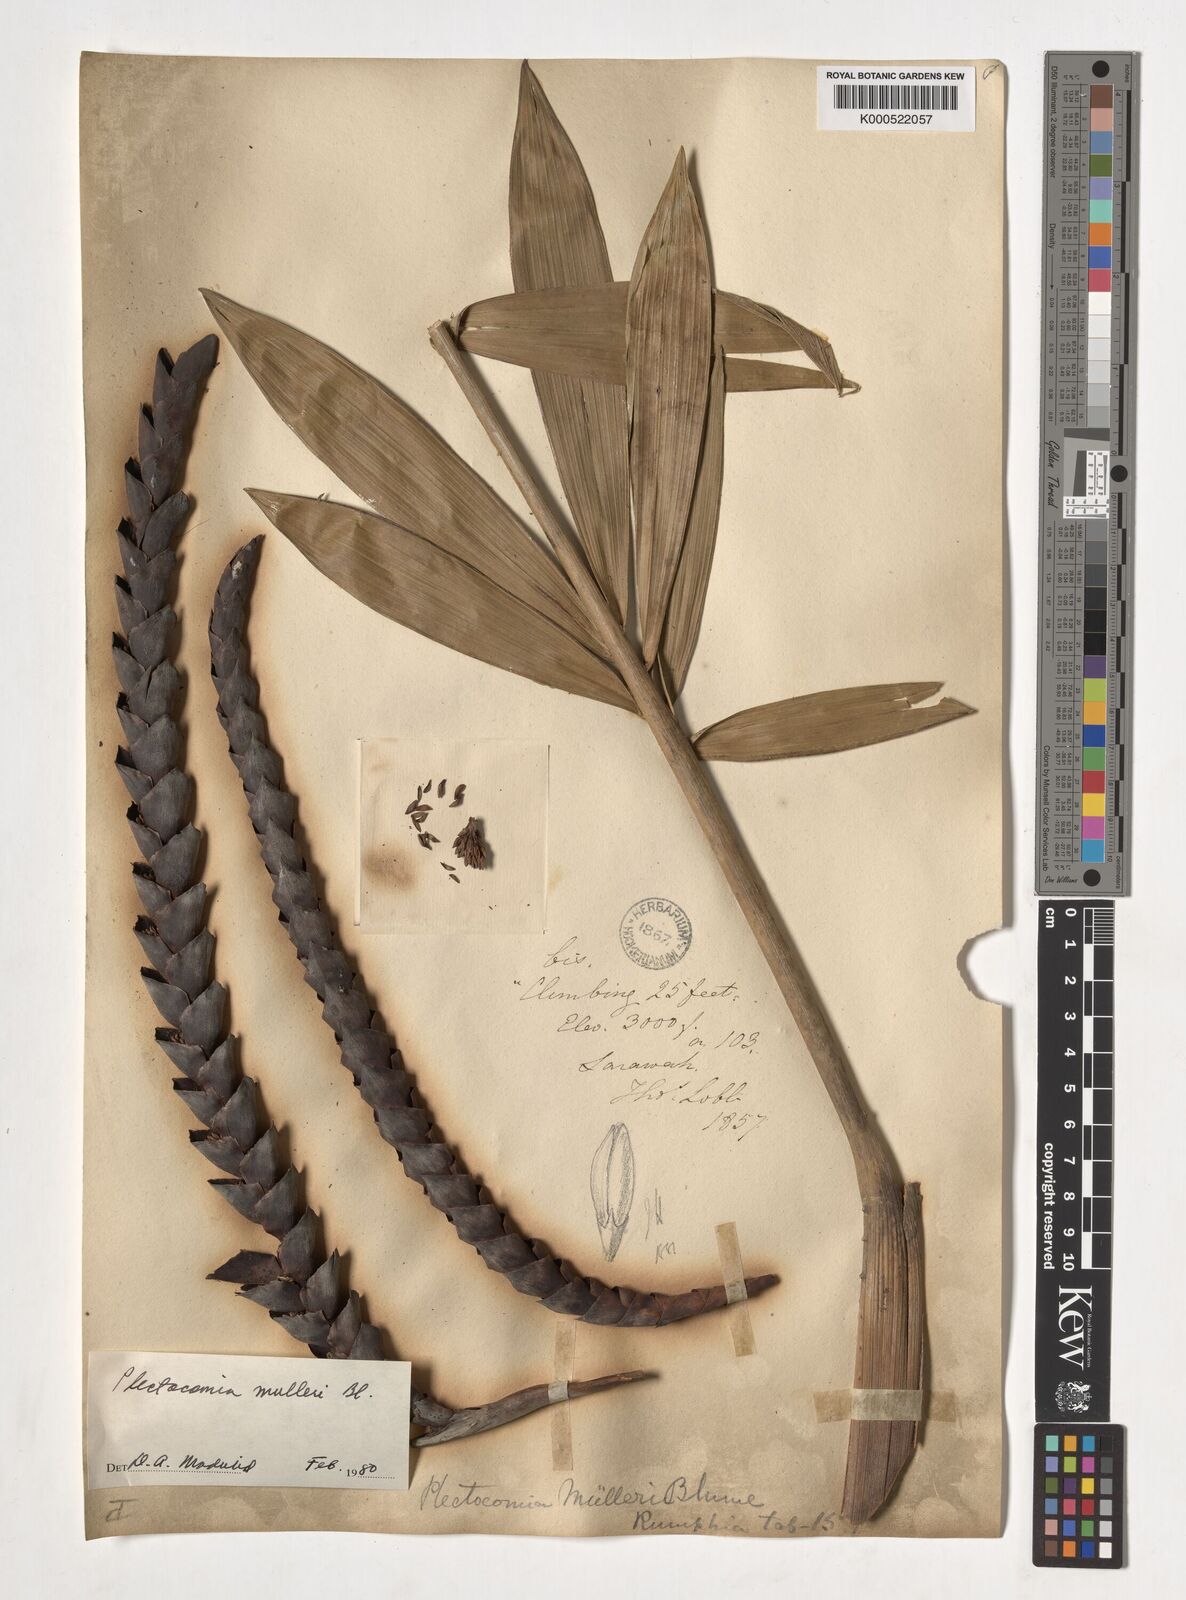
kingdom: Plantae
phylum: Tracheophyta
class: Liliopsida
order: Arecales
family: Arecaceae
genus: Plectocomia
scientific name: Plectocomia mulleri
